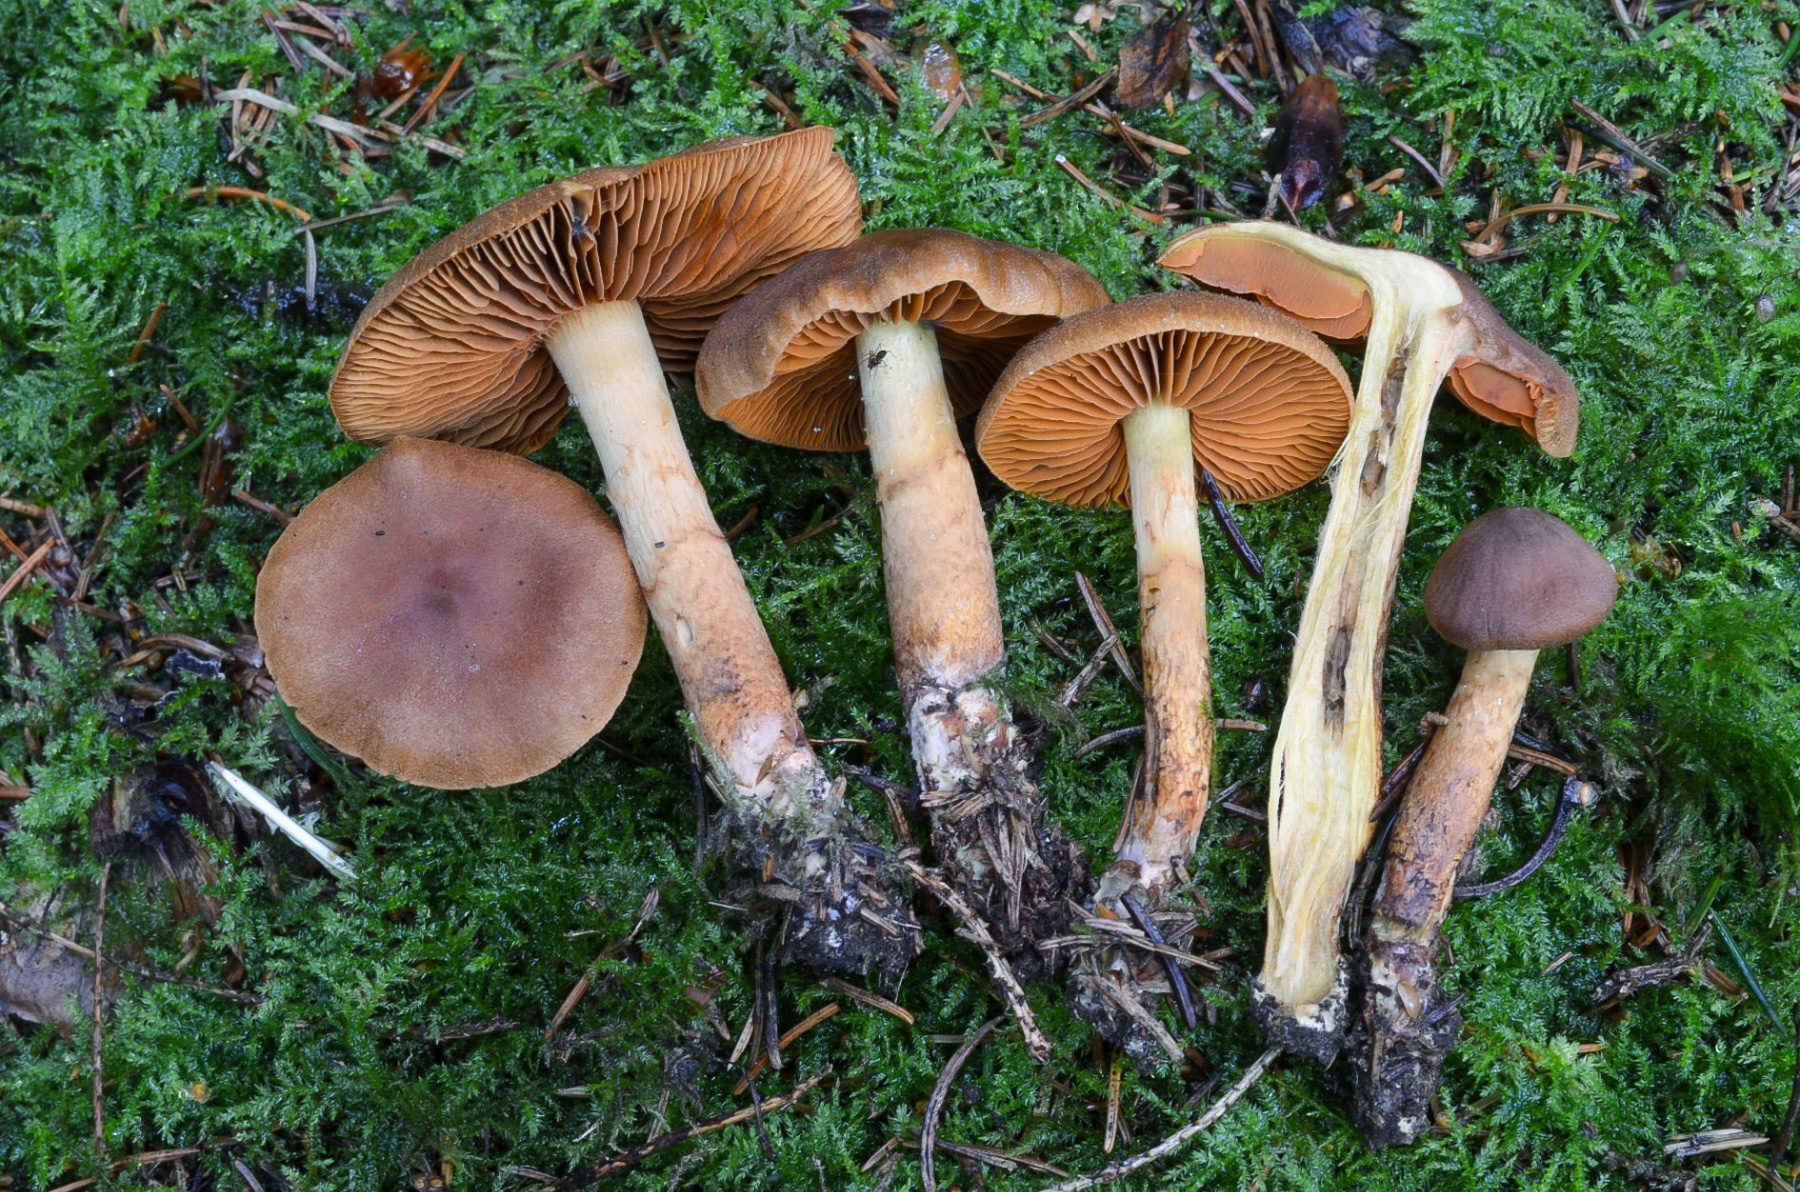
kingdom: Fungi
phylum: Basidiomycota
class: Agaricomycetes
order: Agaricales
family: Cortinariaceae
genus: Cortinarius
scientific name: Cortinarius eleonorae
